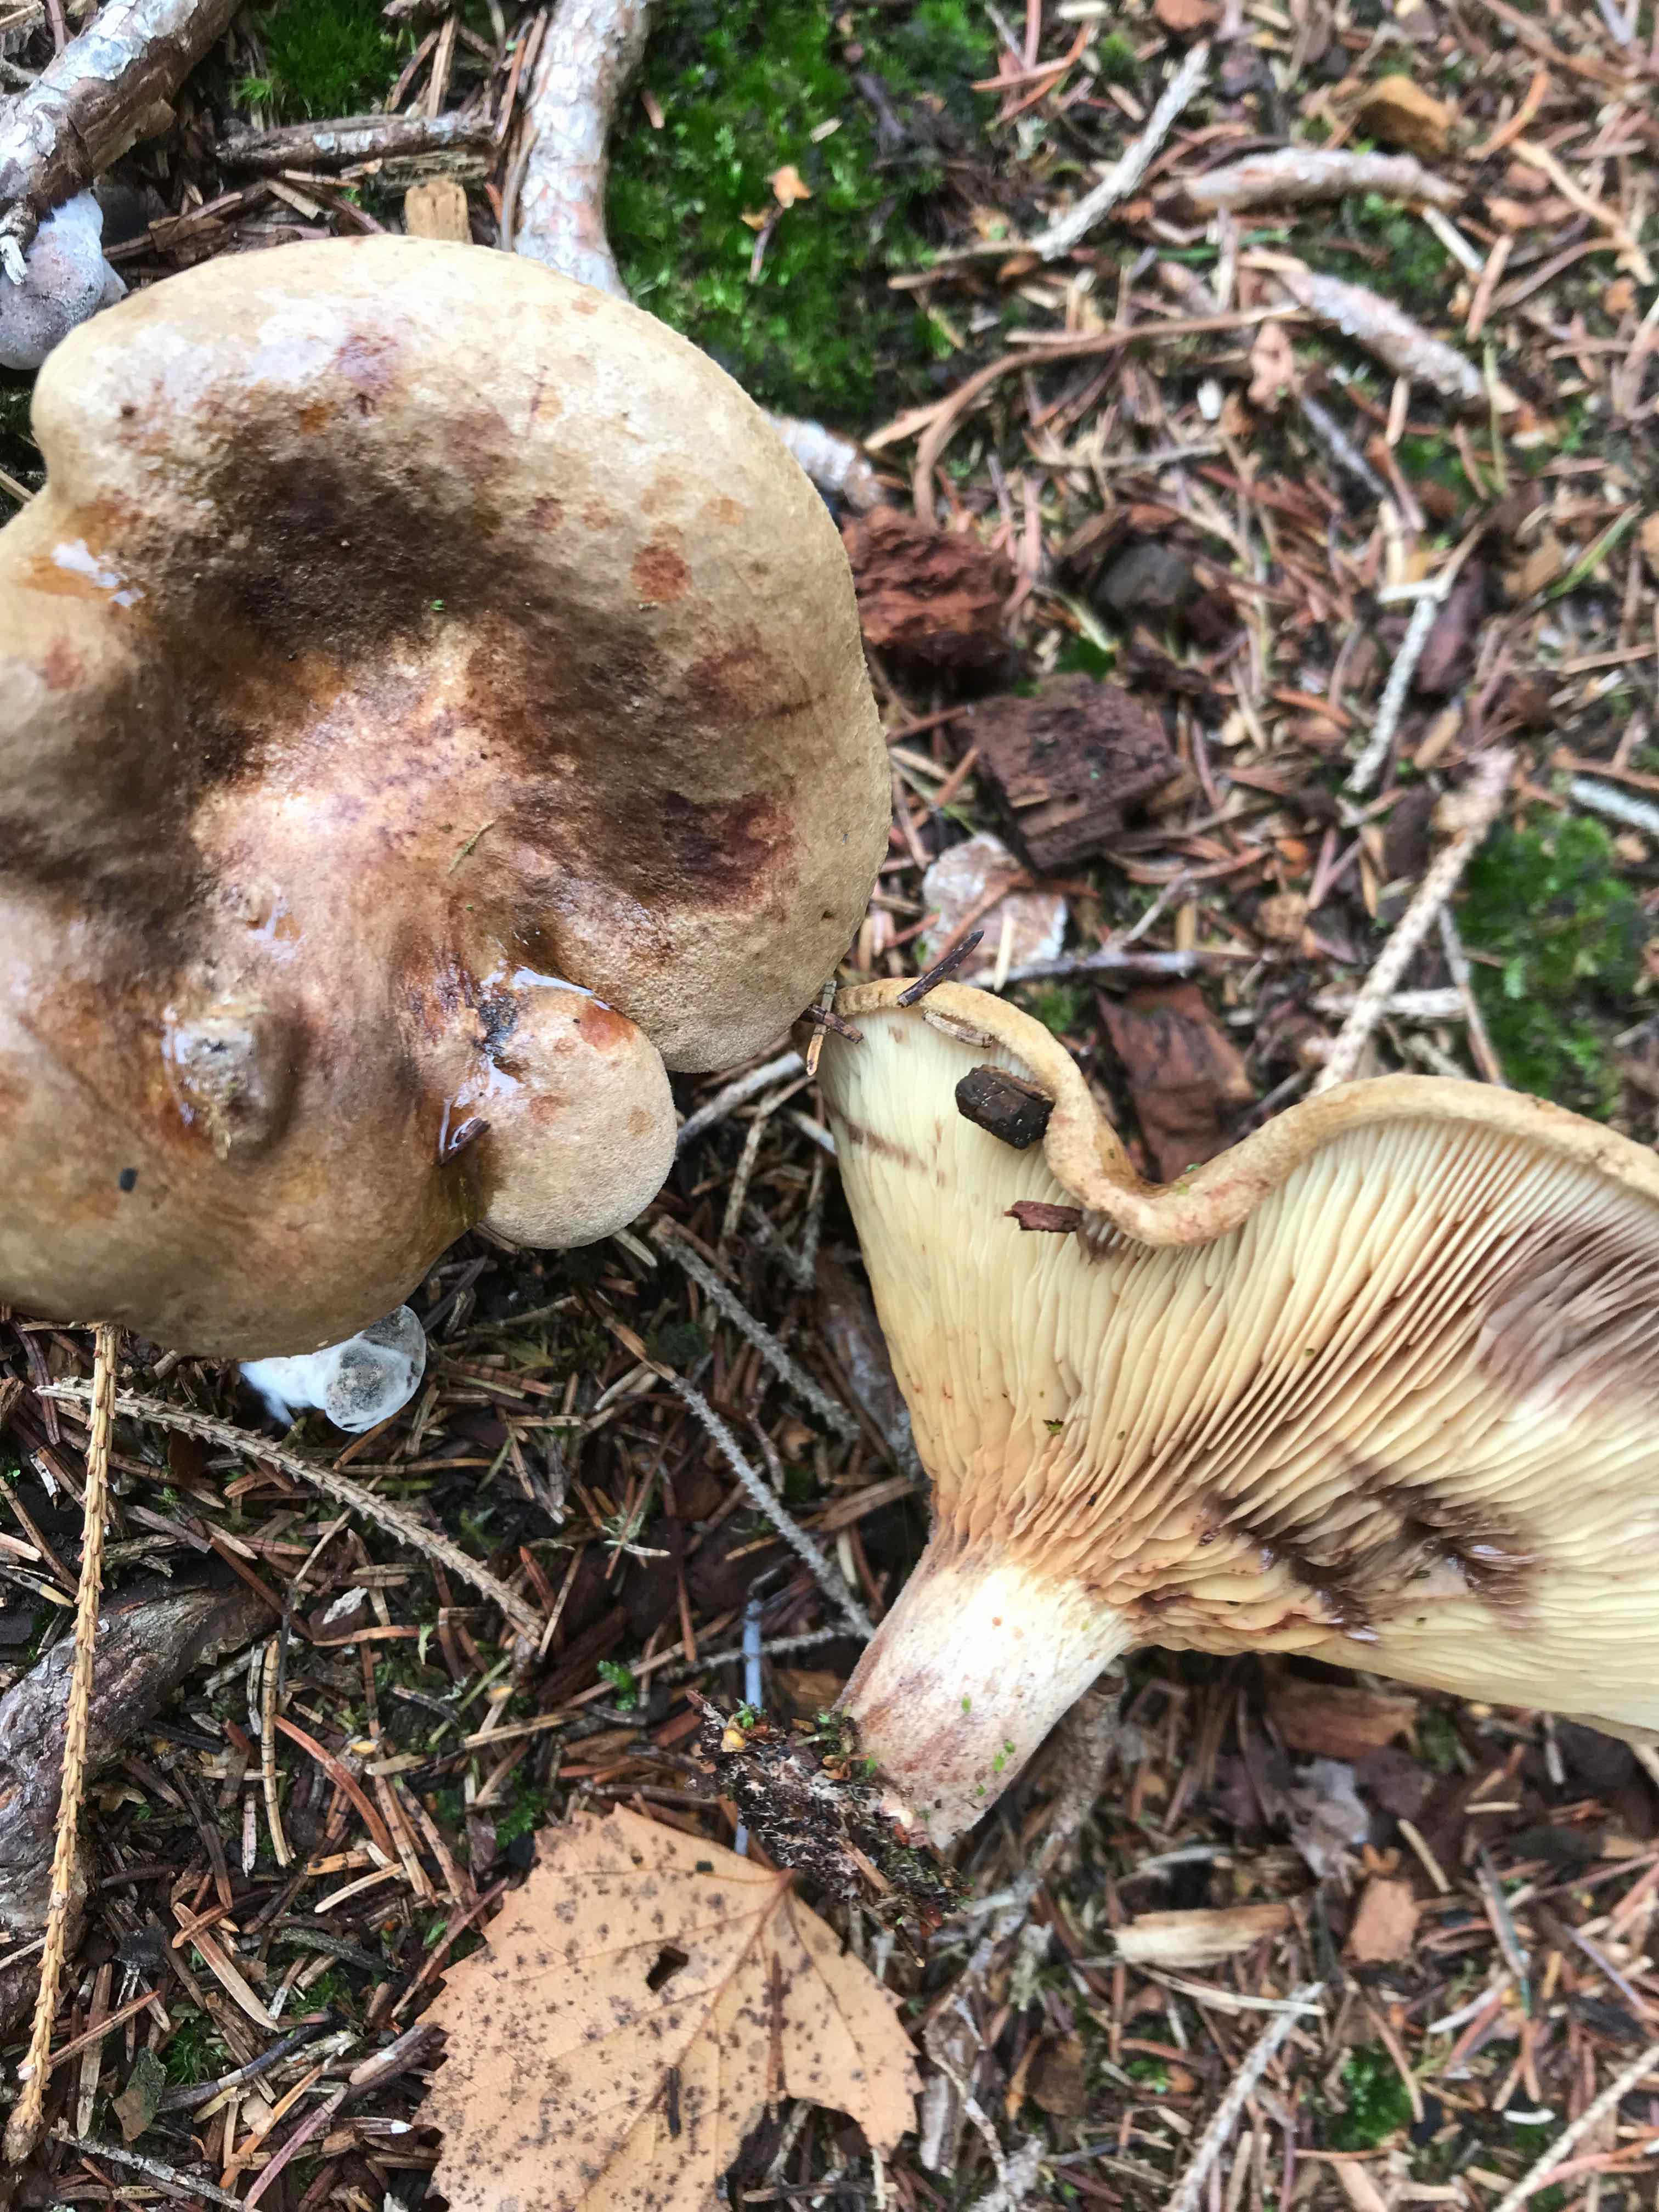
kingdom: Fungi
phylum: Basidiomycota
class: Agaricomycetes
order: Boletales
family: Paxillaceae
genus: Paxillus
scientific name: Paxillus involutus
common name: almindelig netbladhat
